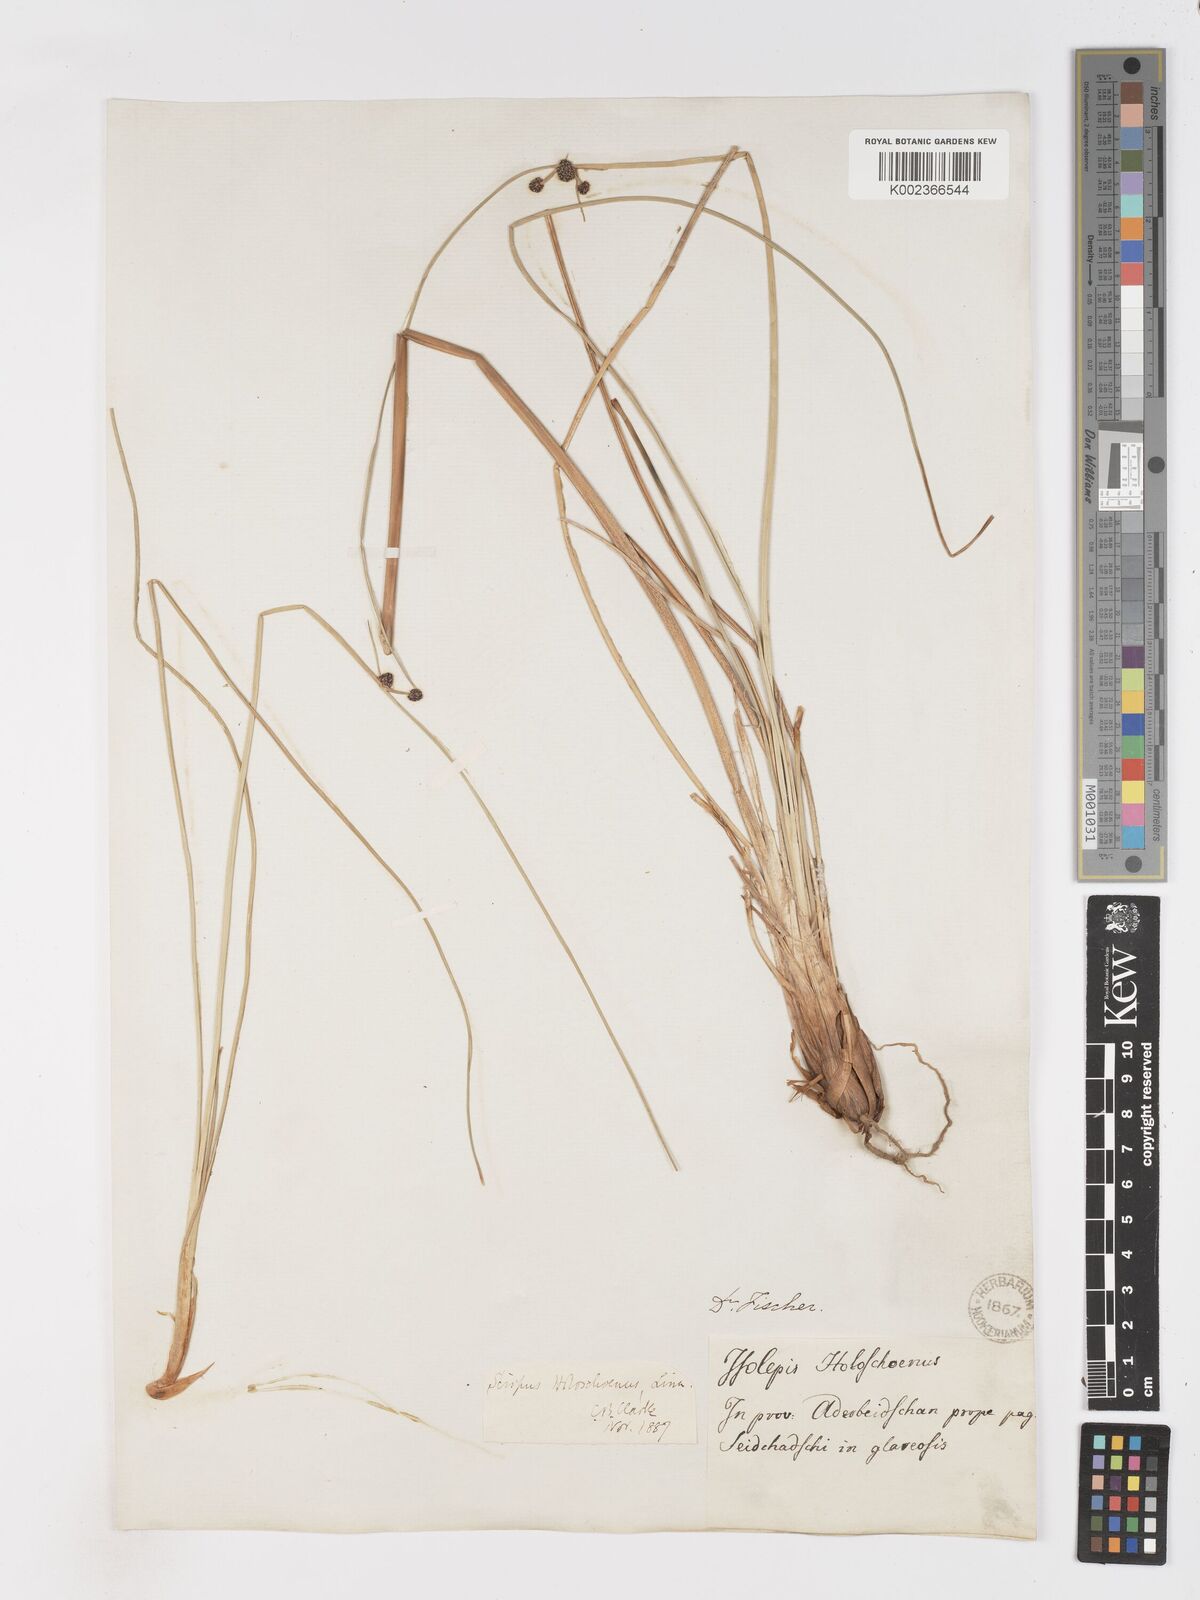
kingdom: Plantae
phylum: Tracheophyta
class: Liliopsida
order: Poales
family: Cyperaceae
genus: Scirpoides
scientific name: Scirpoides holoschoenus
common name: Round-headed club-rush
